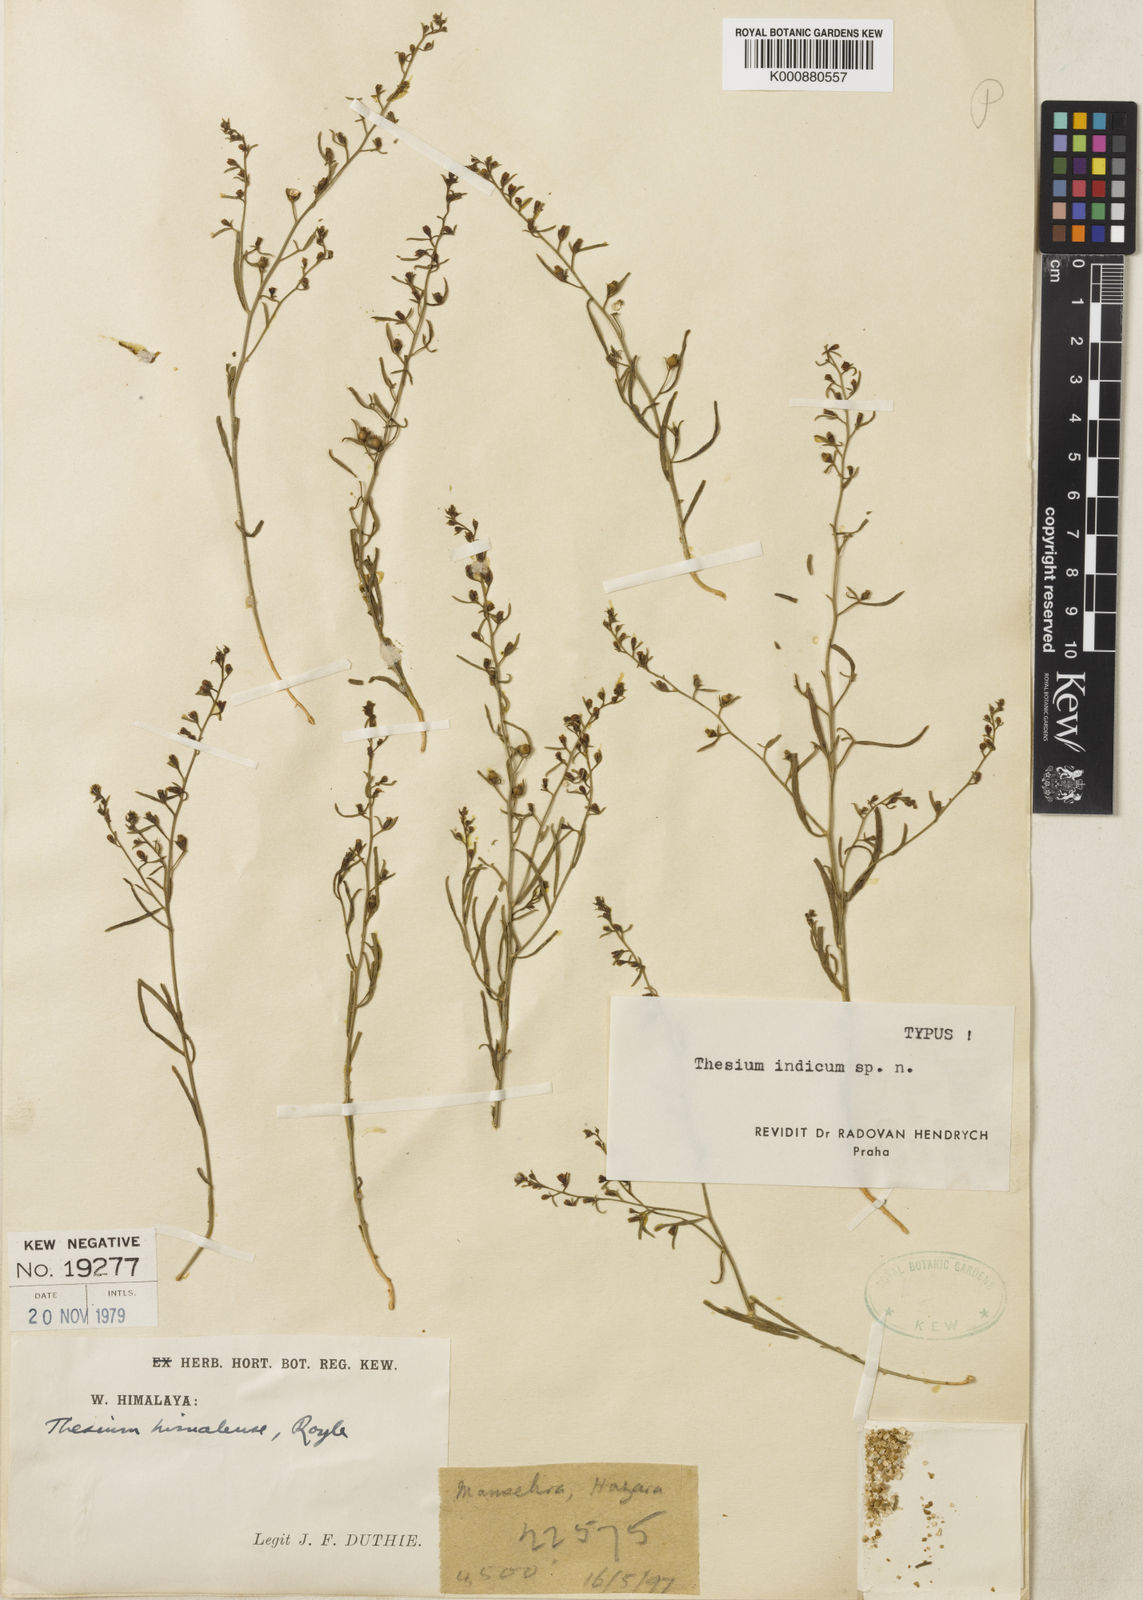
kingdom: Plantae
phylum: Tracheophyta
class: Magnoliopsida
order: Santalales
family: Thesiaceae
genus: Thesium
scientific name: Thesium himalense
